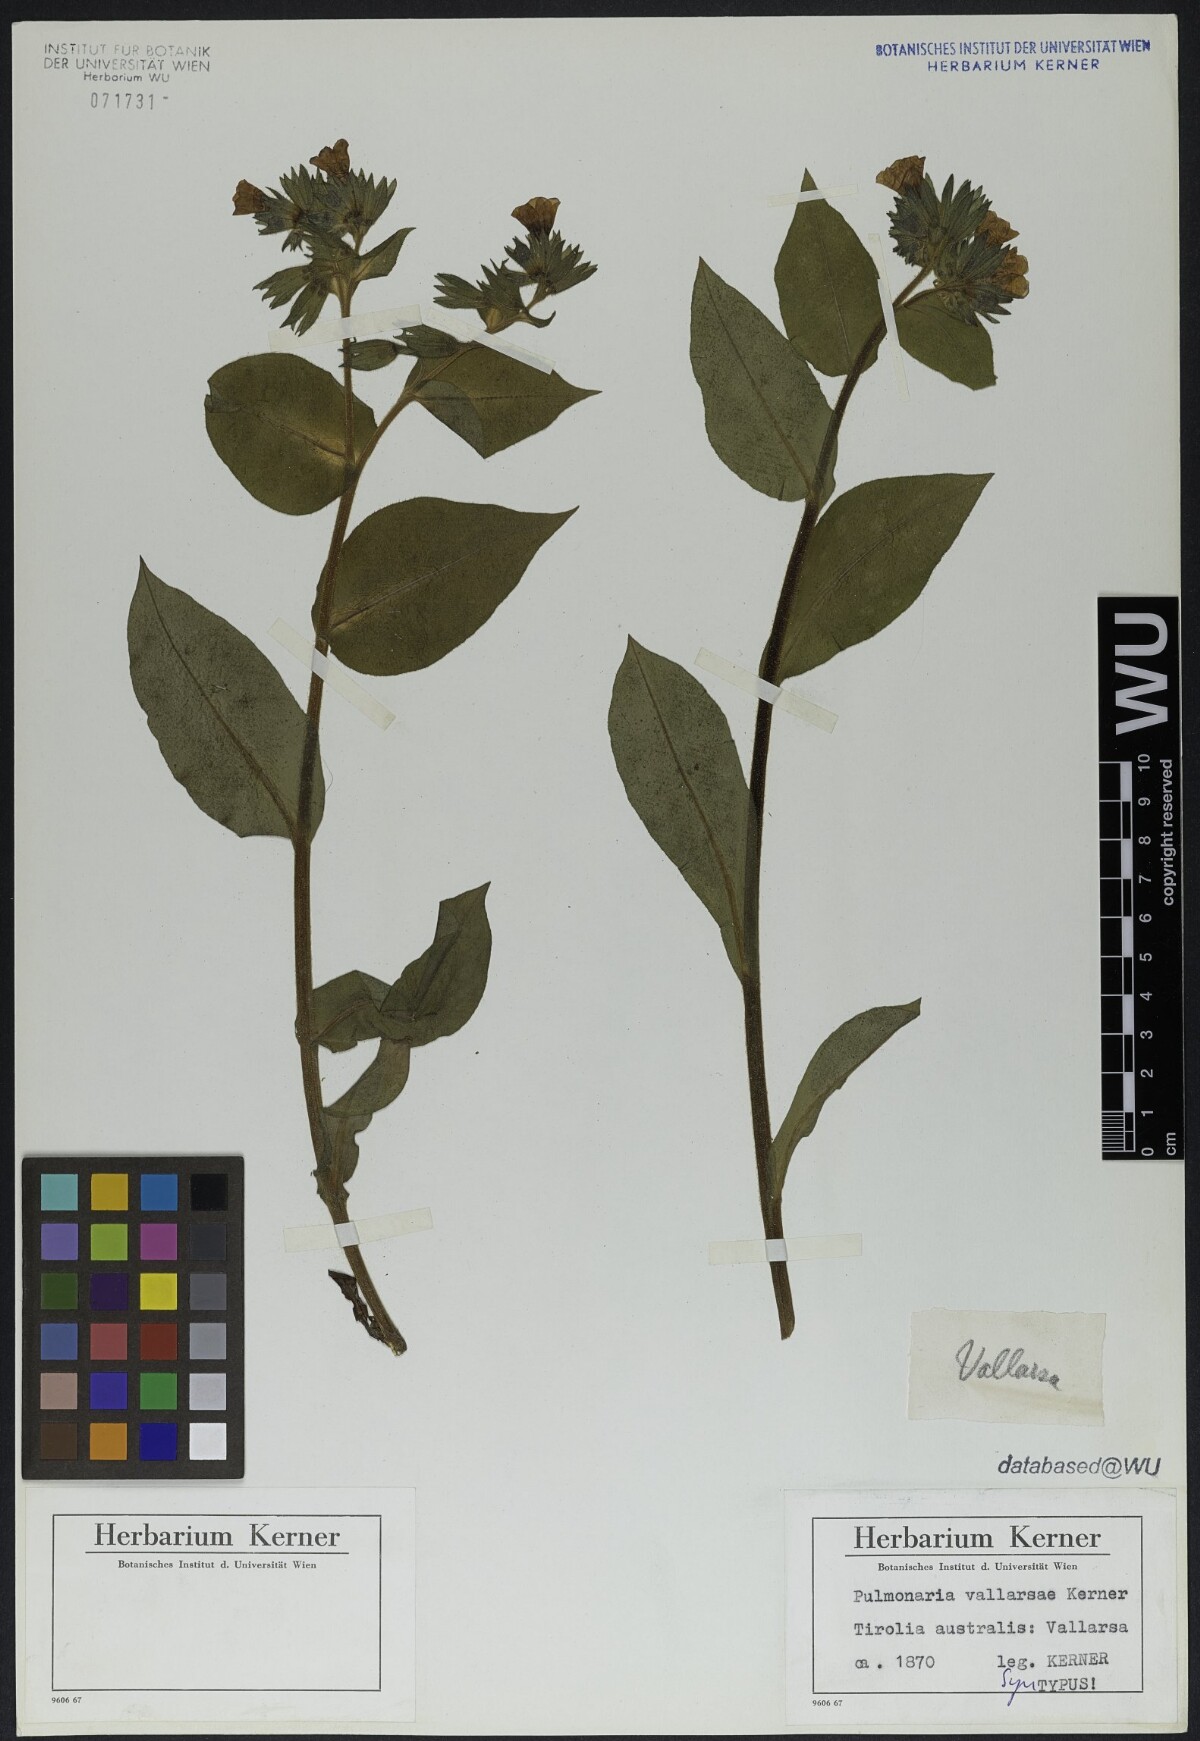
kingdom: Plantae
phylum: Tracheophyta
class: Magnoliopsida
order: Boraginales
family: Boraginaceae
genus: Pulmonaria
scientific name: Pulmonaria hirta
